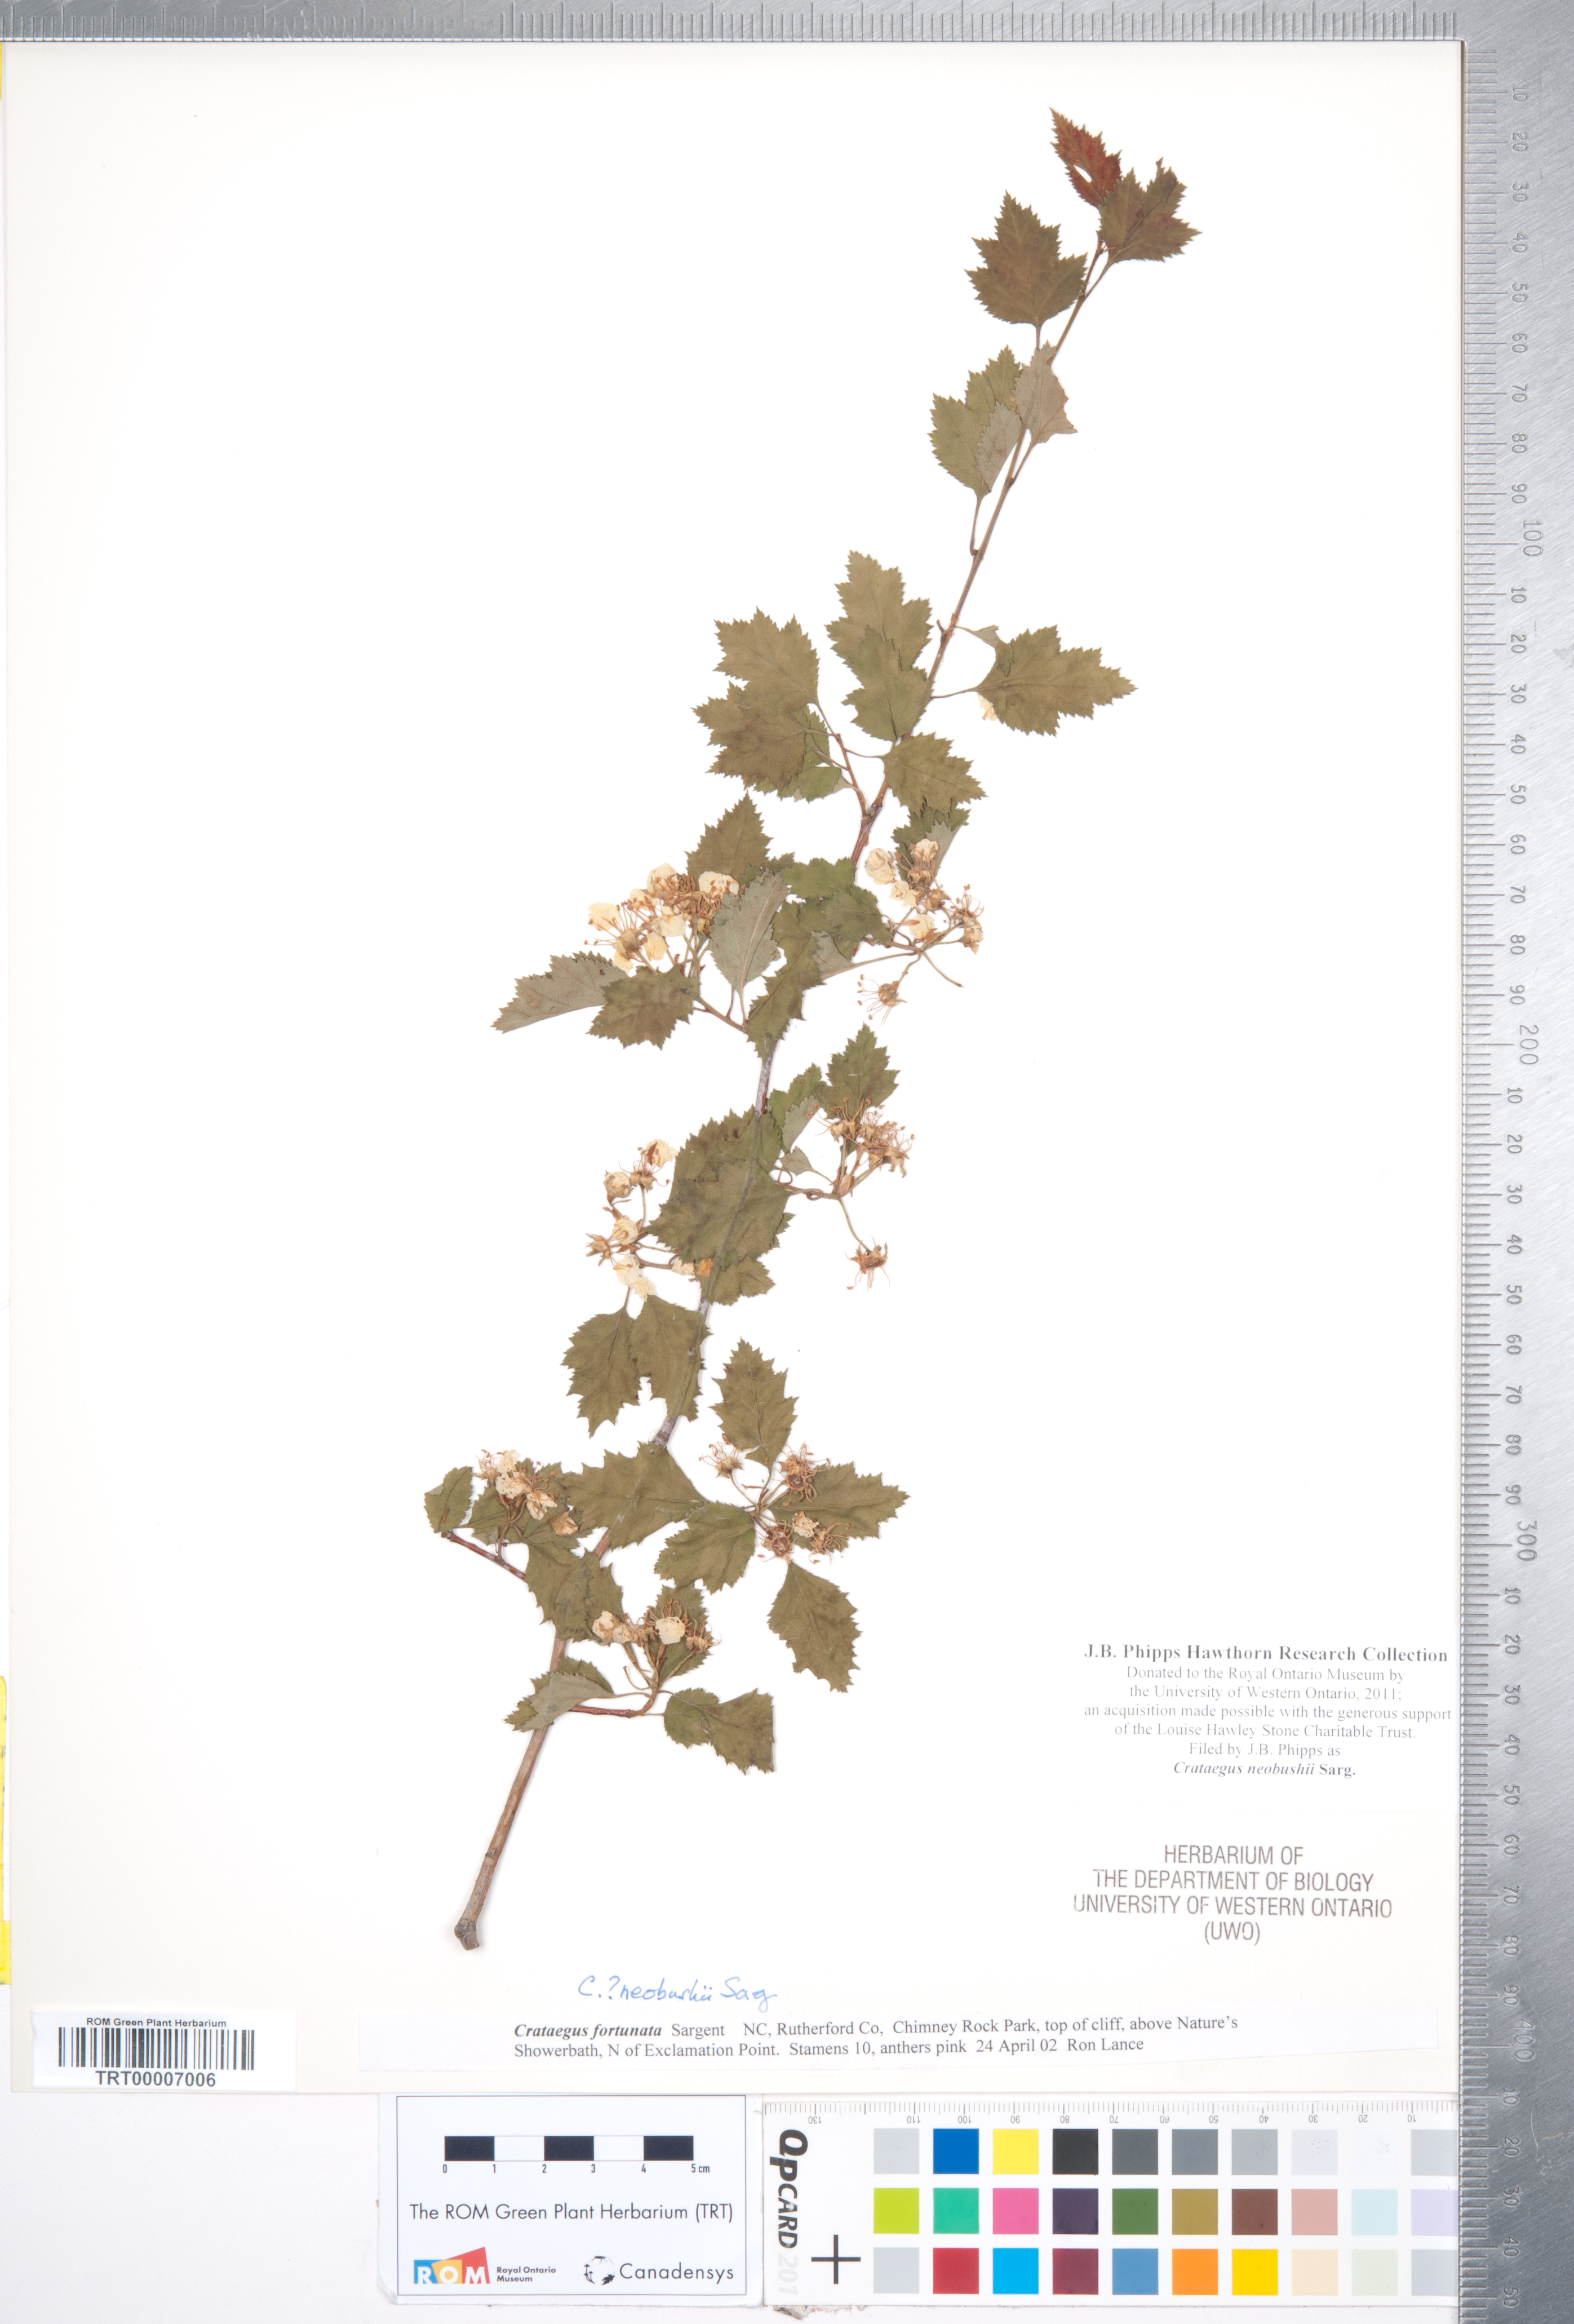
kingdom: Plantae
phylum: Tracheophyta
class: Magnoliopsida
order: Rosales
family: Rosaceae
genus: Crataegus
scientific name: Crataegus neobushii
